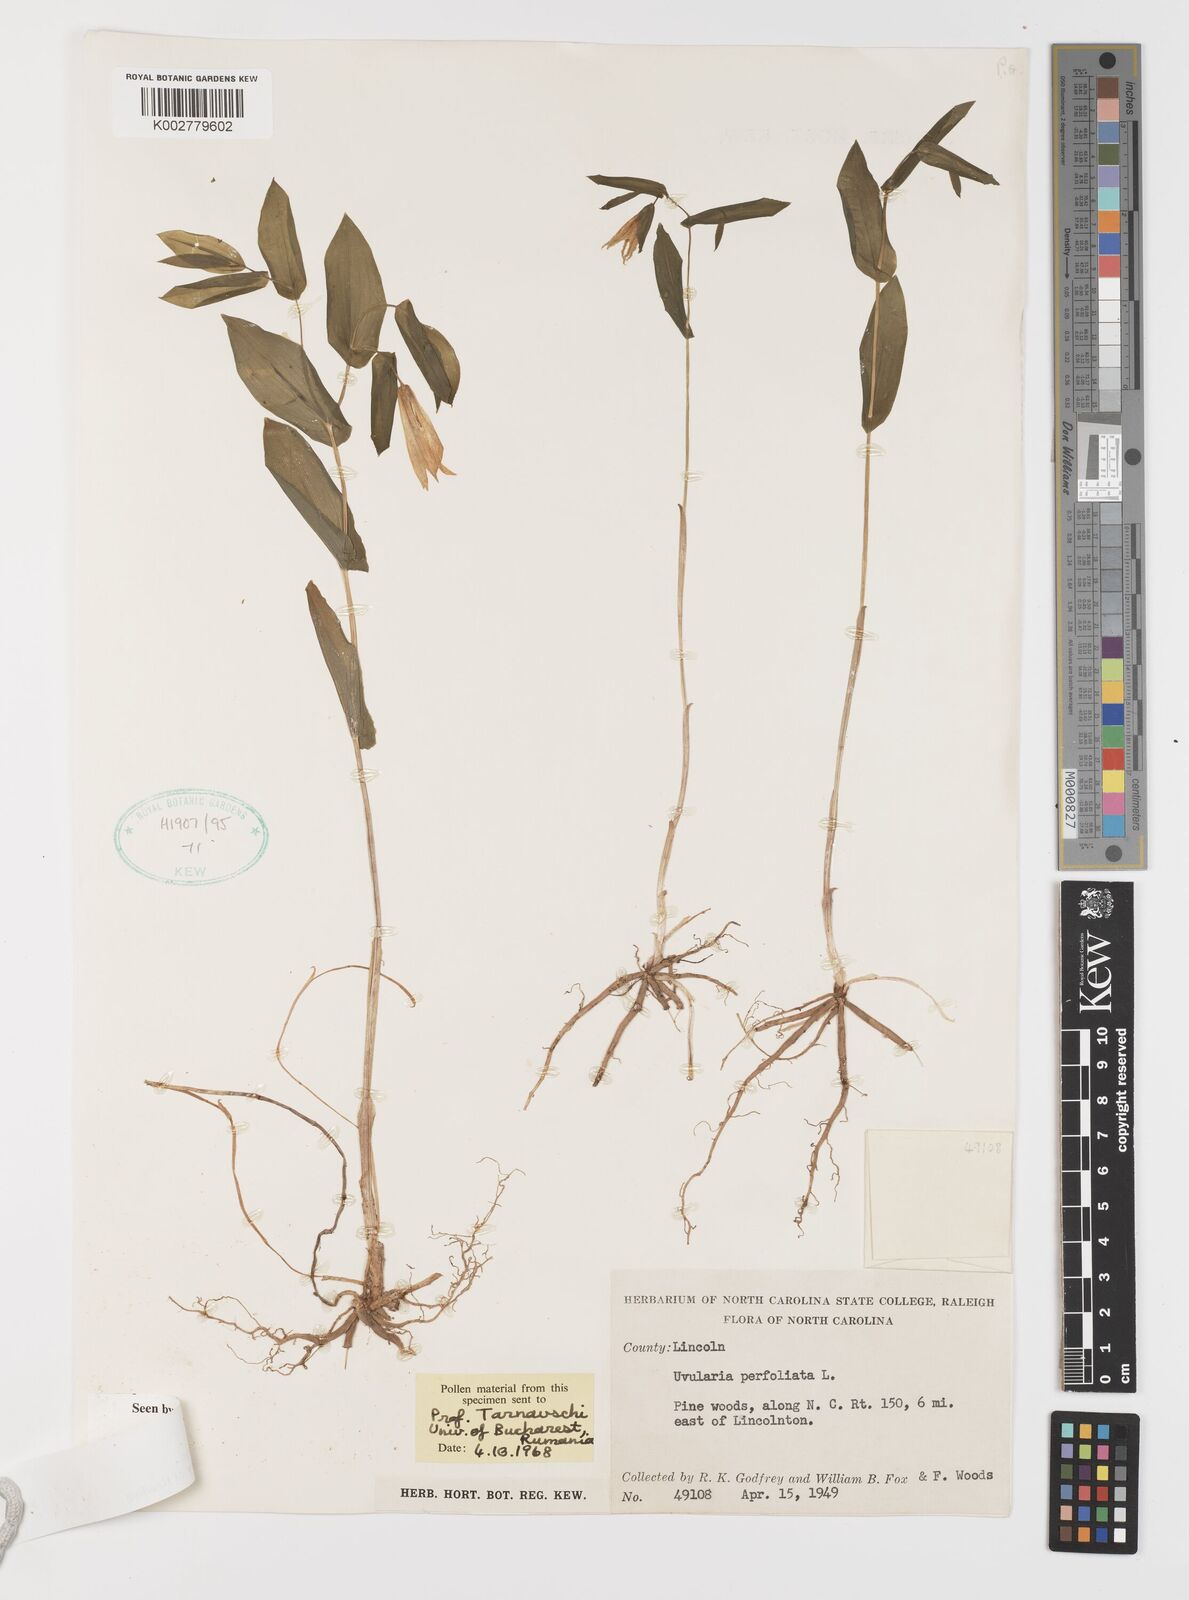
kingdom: Plantae
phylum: Tracheophyta
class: Liliopsida
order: Liliales
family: Colchicaceae
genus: Uvularia
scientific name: Uvularia perfoliata
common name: Perfoliate bellwort
